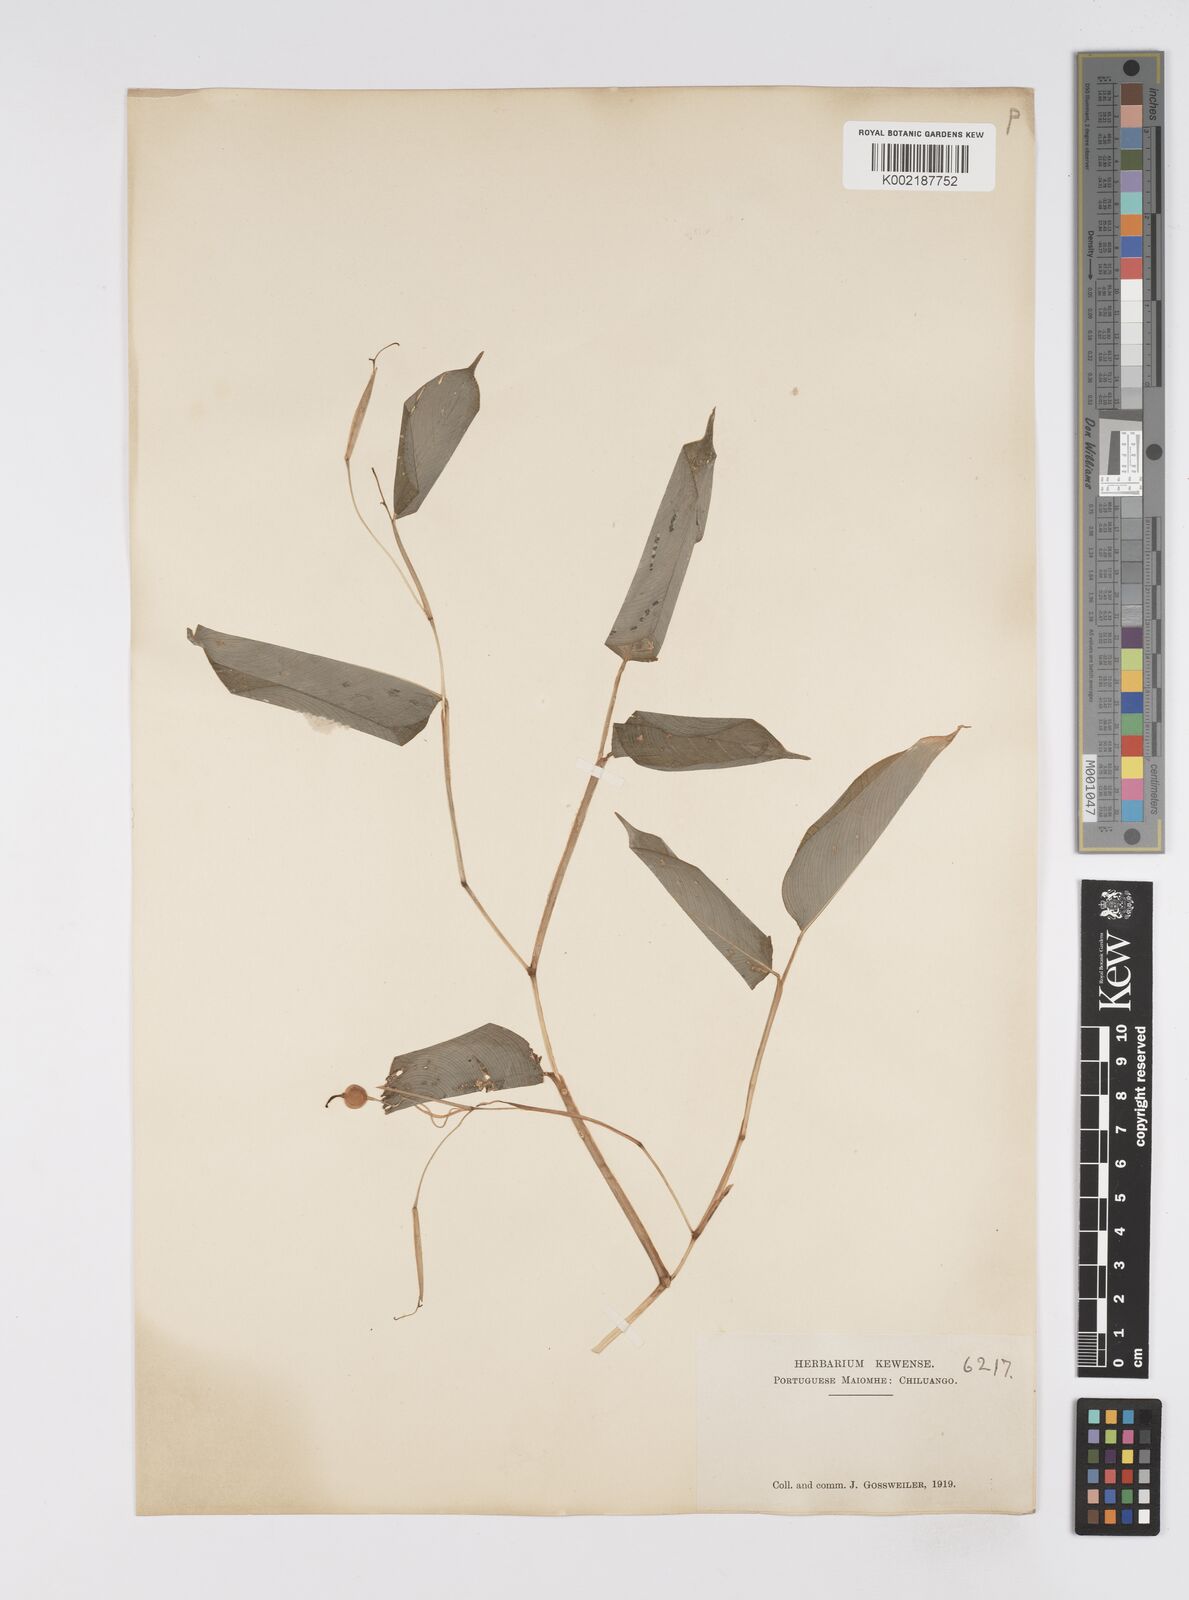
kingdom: Plantae
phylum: Tracheophyta
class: Liliopsida
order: Zingiberales
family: Marantaceae
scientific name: Marantaceae
